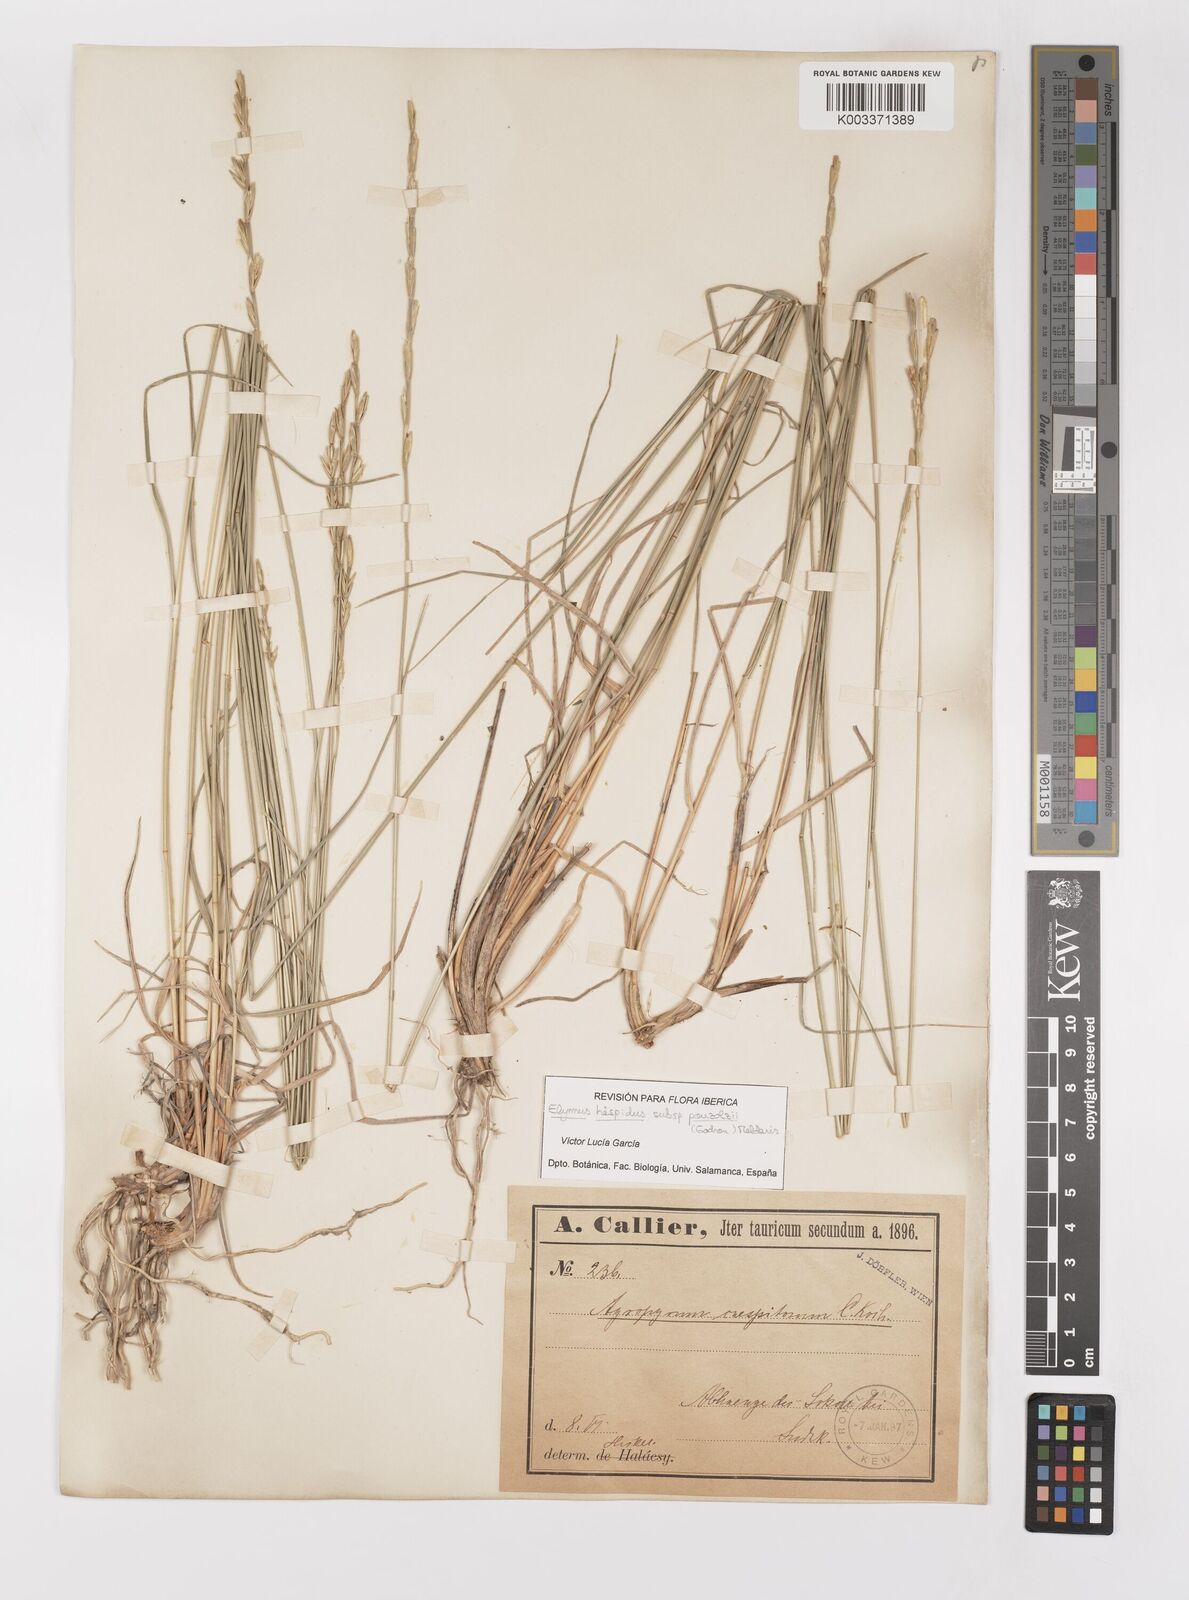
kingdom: Plantae
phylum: Tracheophyta
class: Liliopsida
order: Poales
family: Poaceae
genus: Elymus
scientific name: Elymus repens
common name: Quackgrass
